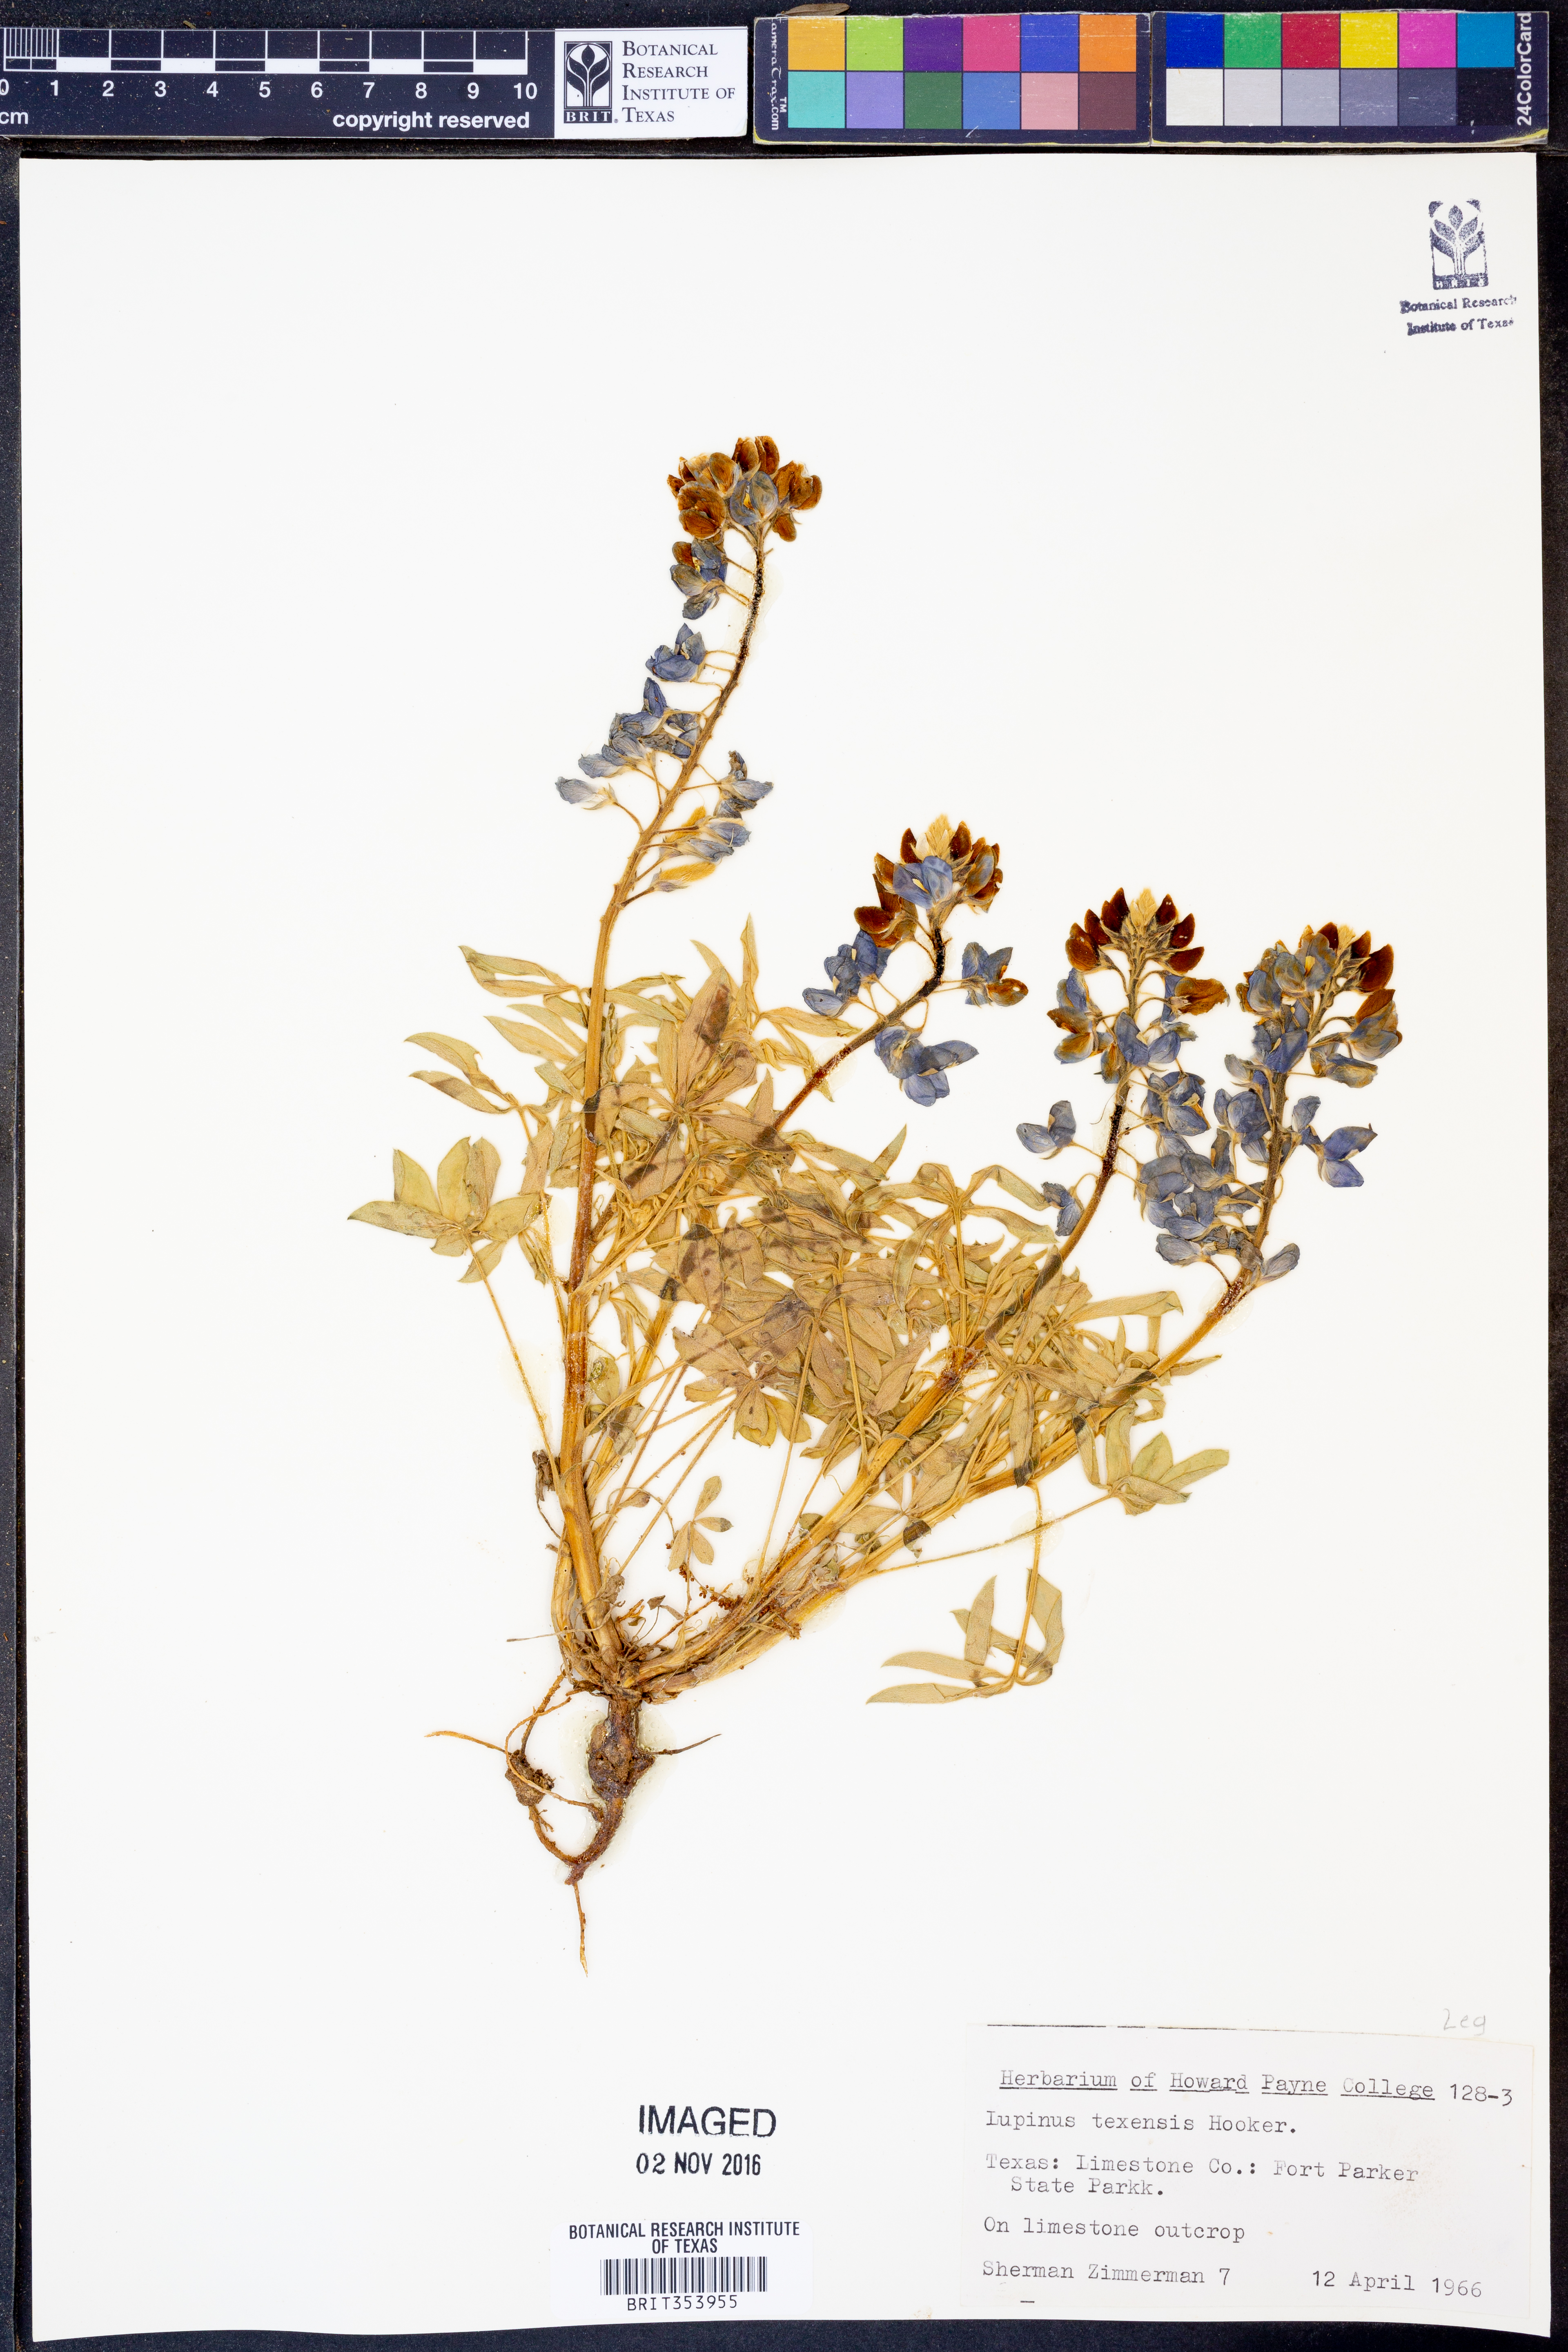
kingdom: Plantae
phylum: Tracheophyta
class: Magnoliopsida
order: Fabales
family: Fabaceae
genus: Lupinus
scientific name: Lupinus texensis
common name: Texas bluebonnet
